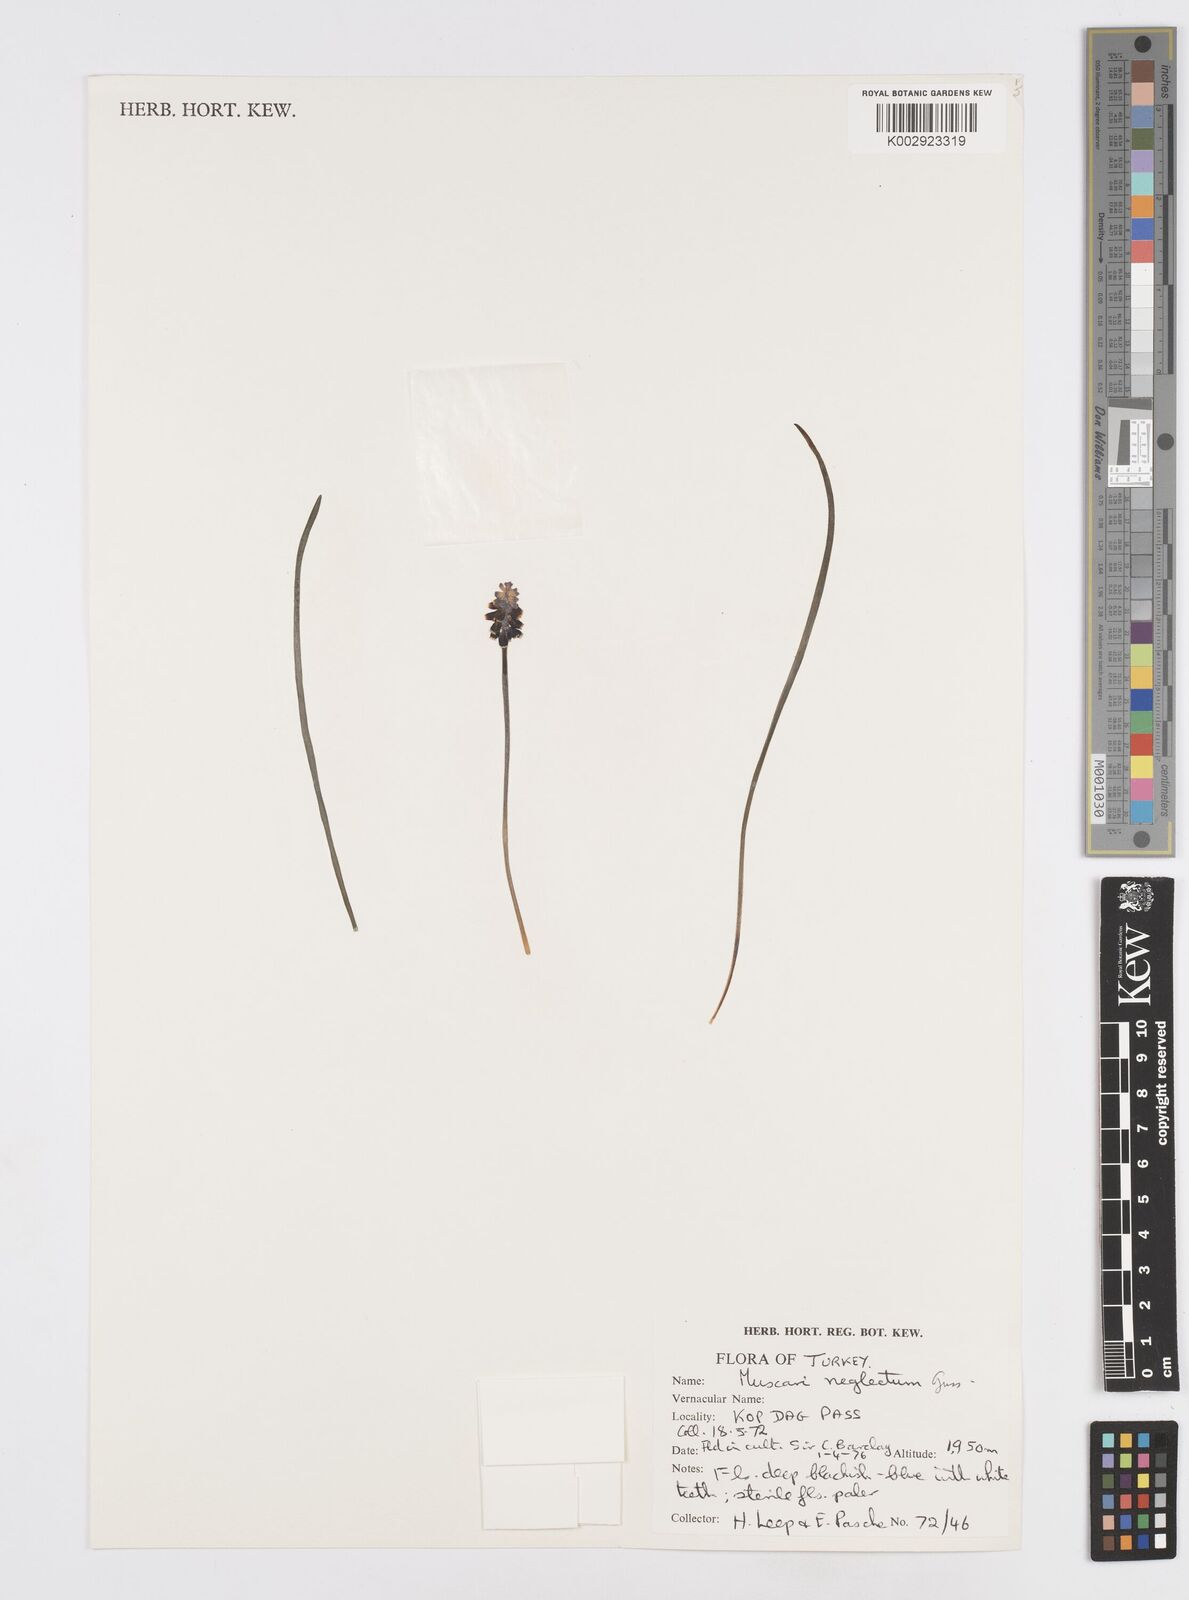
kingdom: Plantae
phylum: Tracheophyta
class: Liliopsida
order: Asparagales
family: Asparagaceae
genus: Muscari
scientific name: Muscari neglectum
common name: Grape-hyacinth
